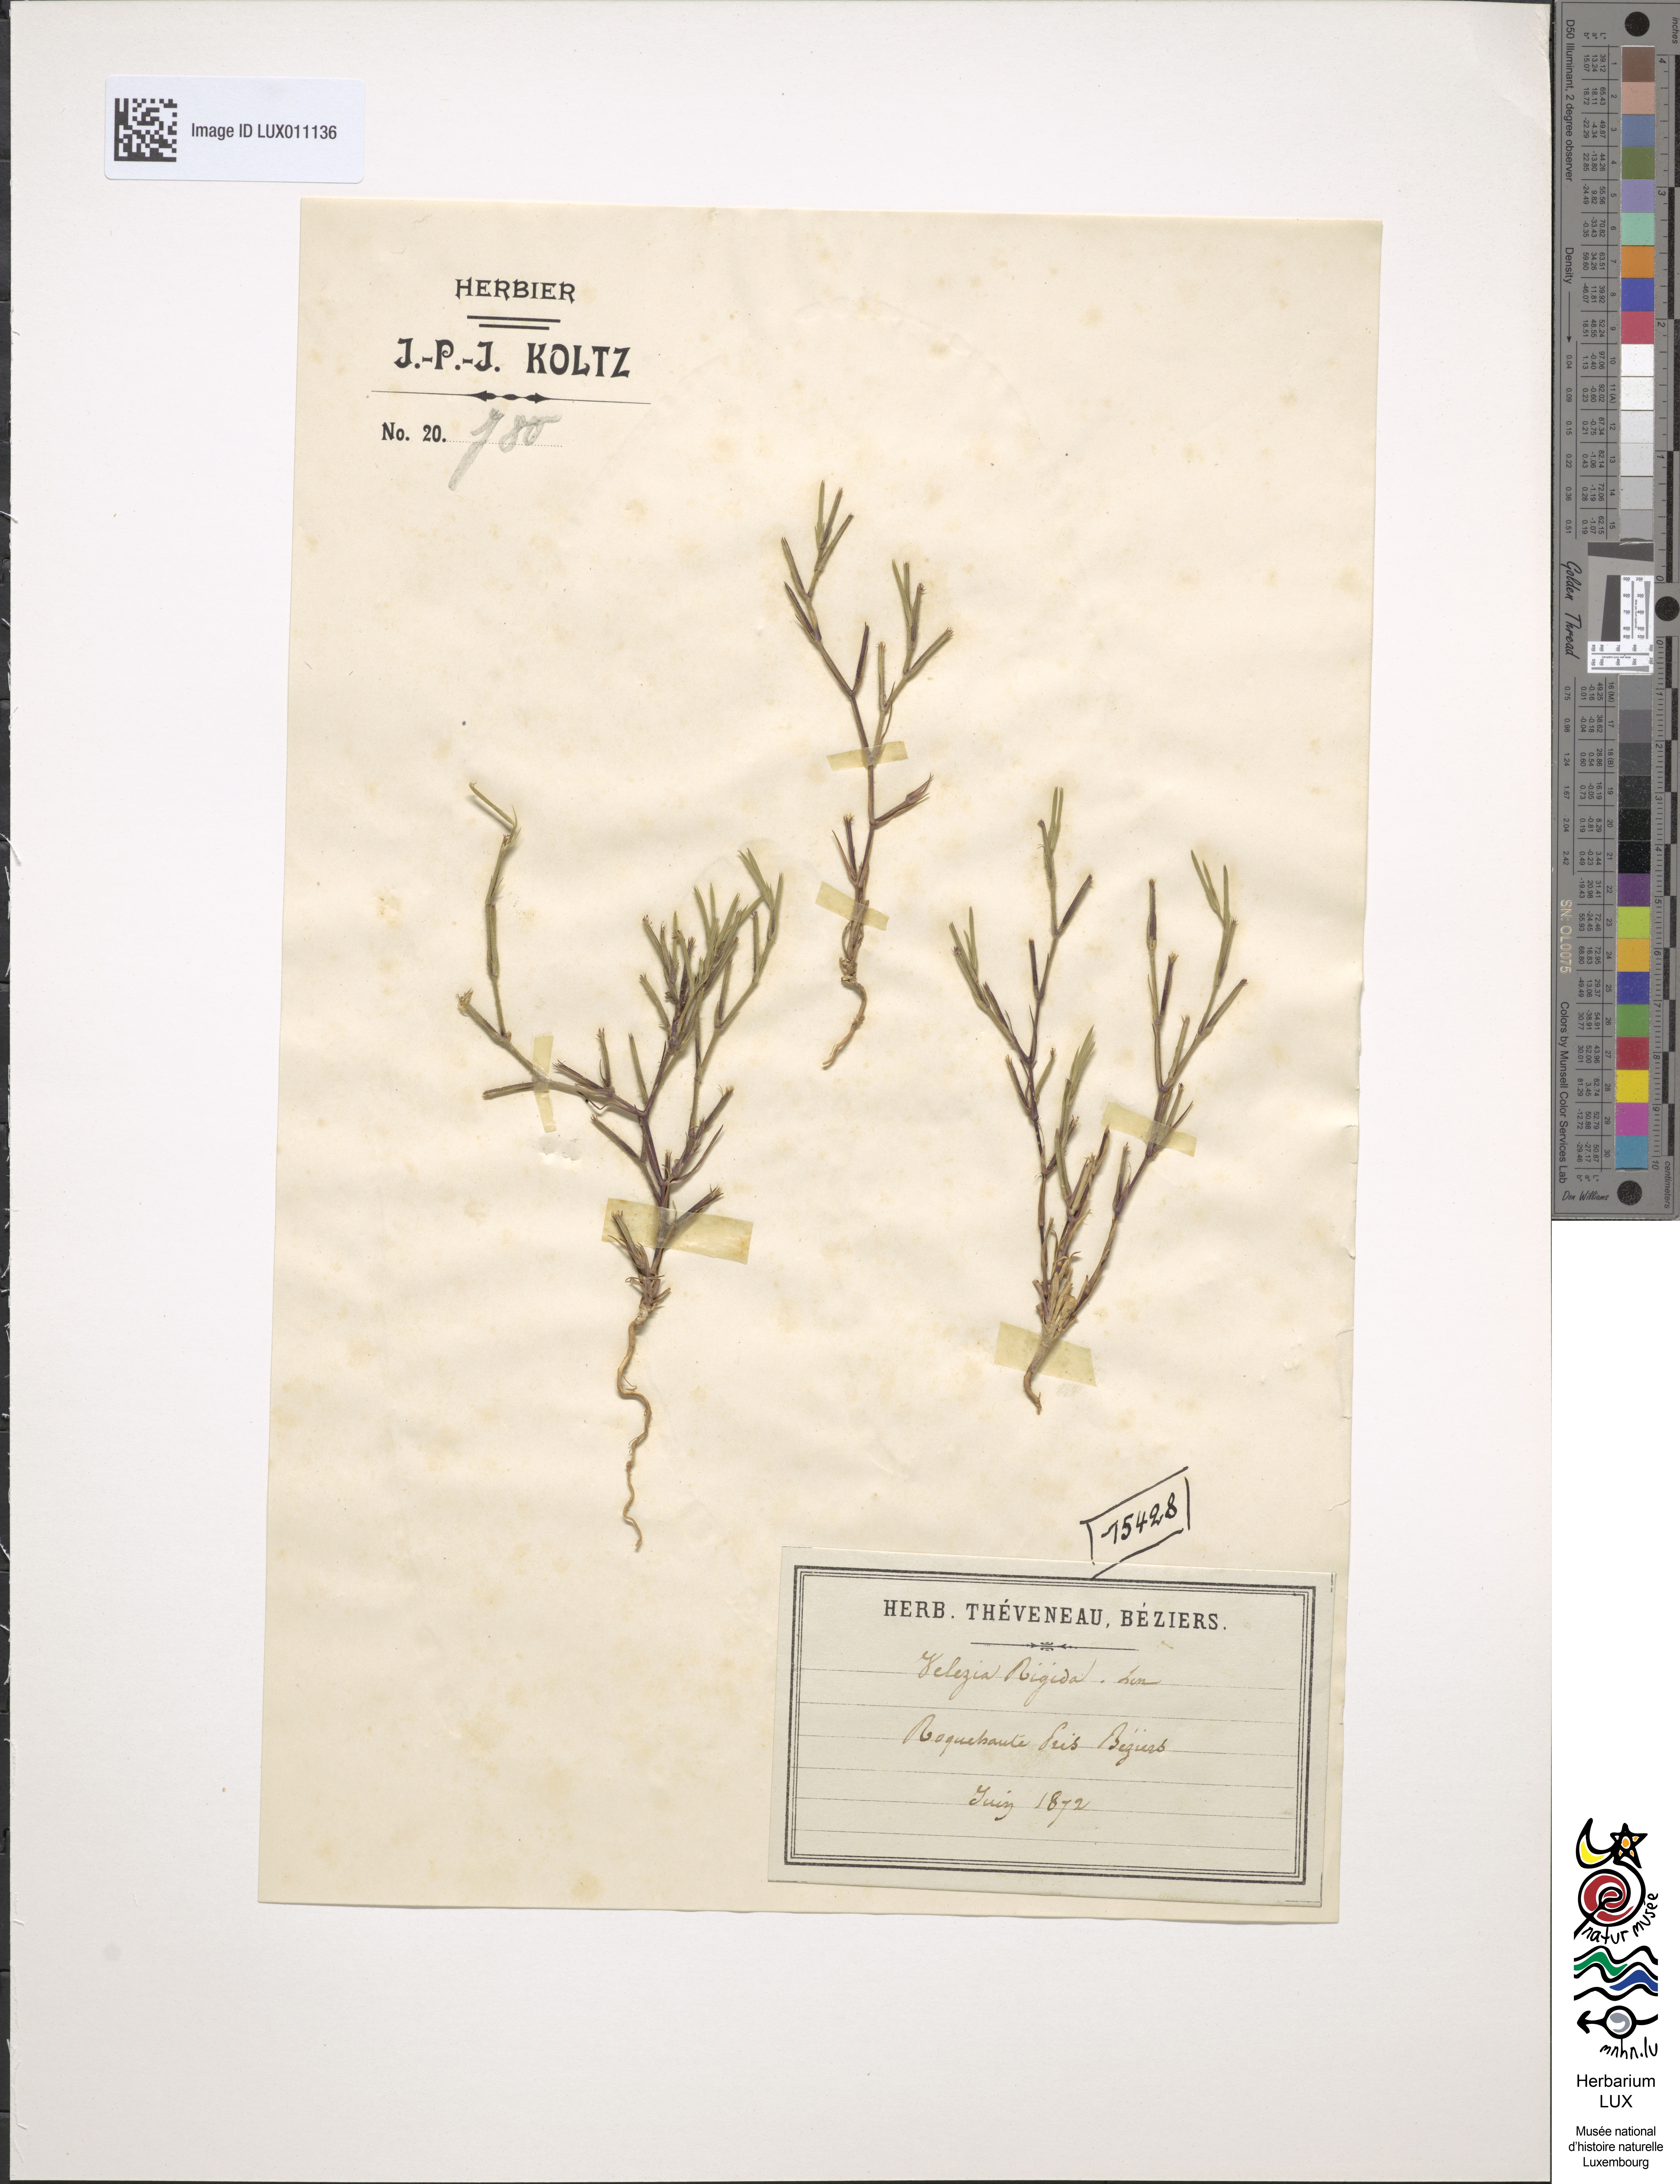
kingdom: Plantae
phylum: Tracheophyta
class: Magnoliopsida
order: Caryophyllales
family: Caryophyllaceae
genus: Dianthus
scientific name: Dianthus nudiflorus
